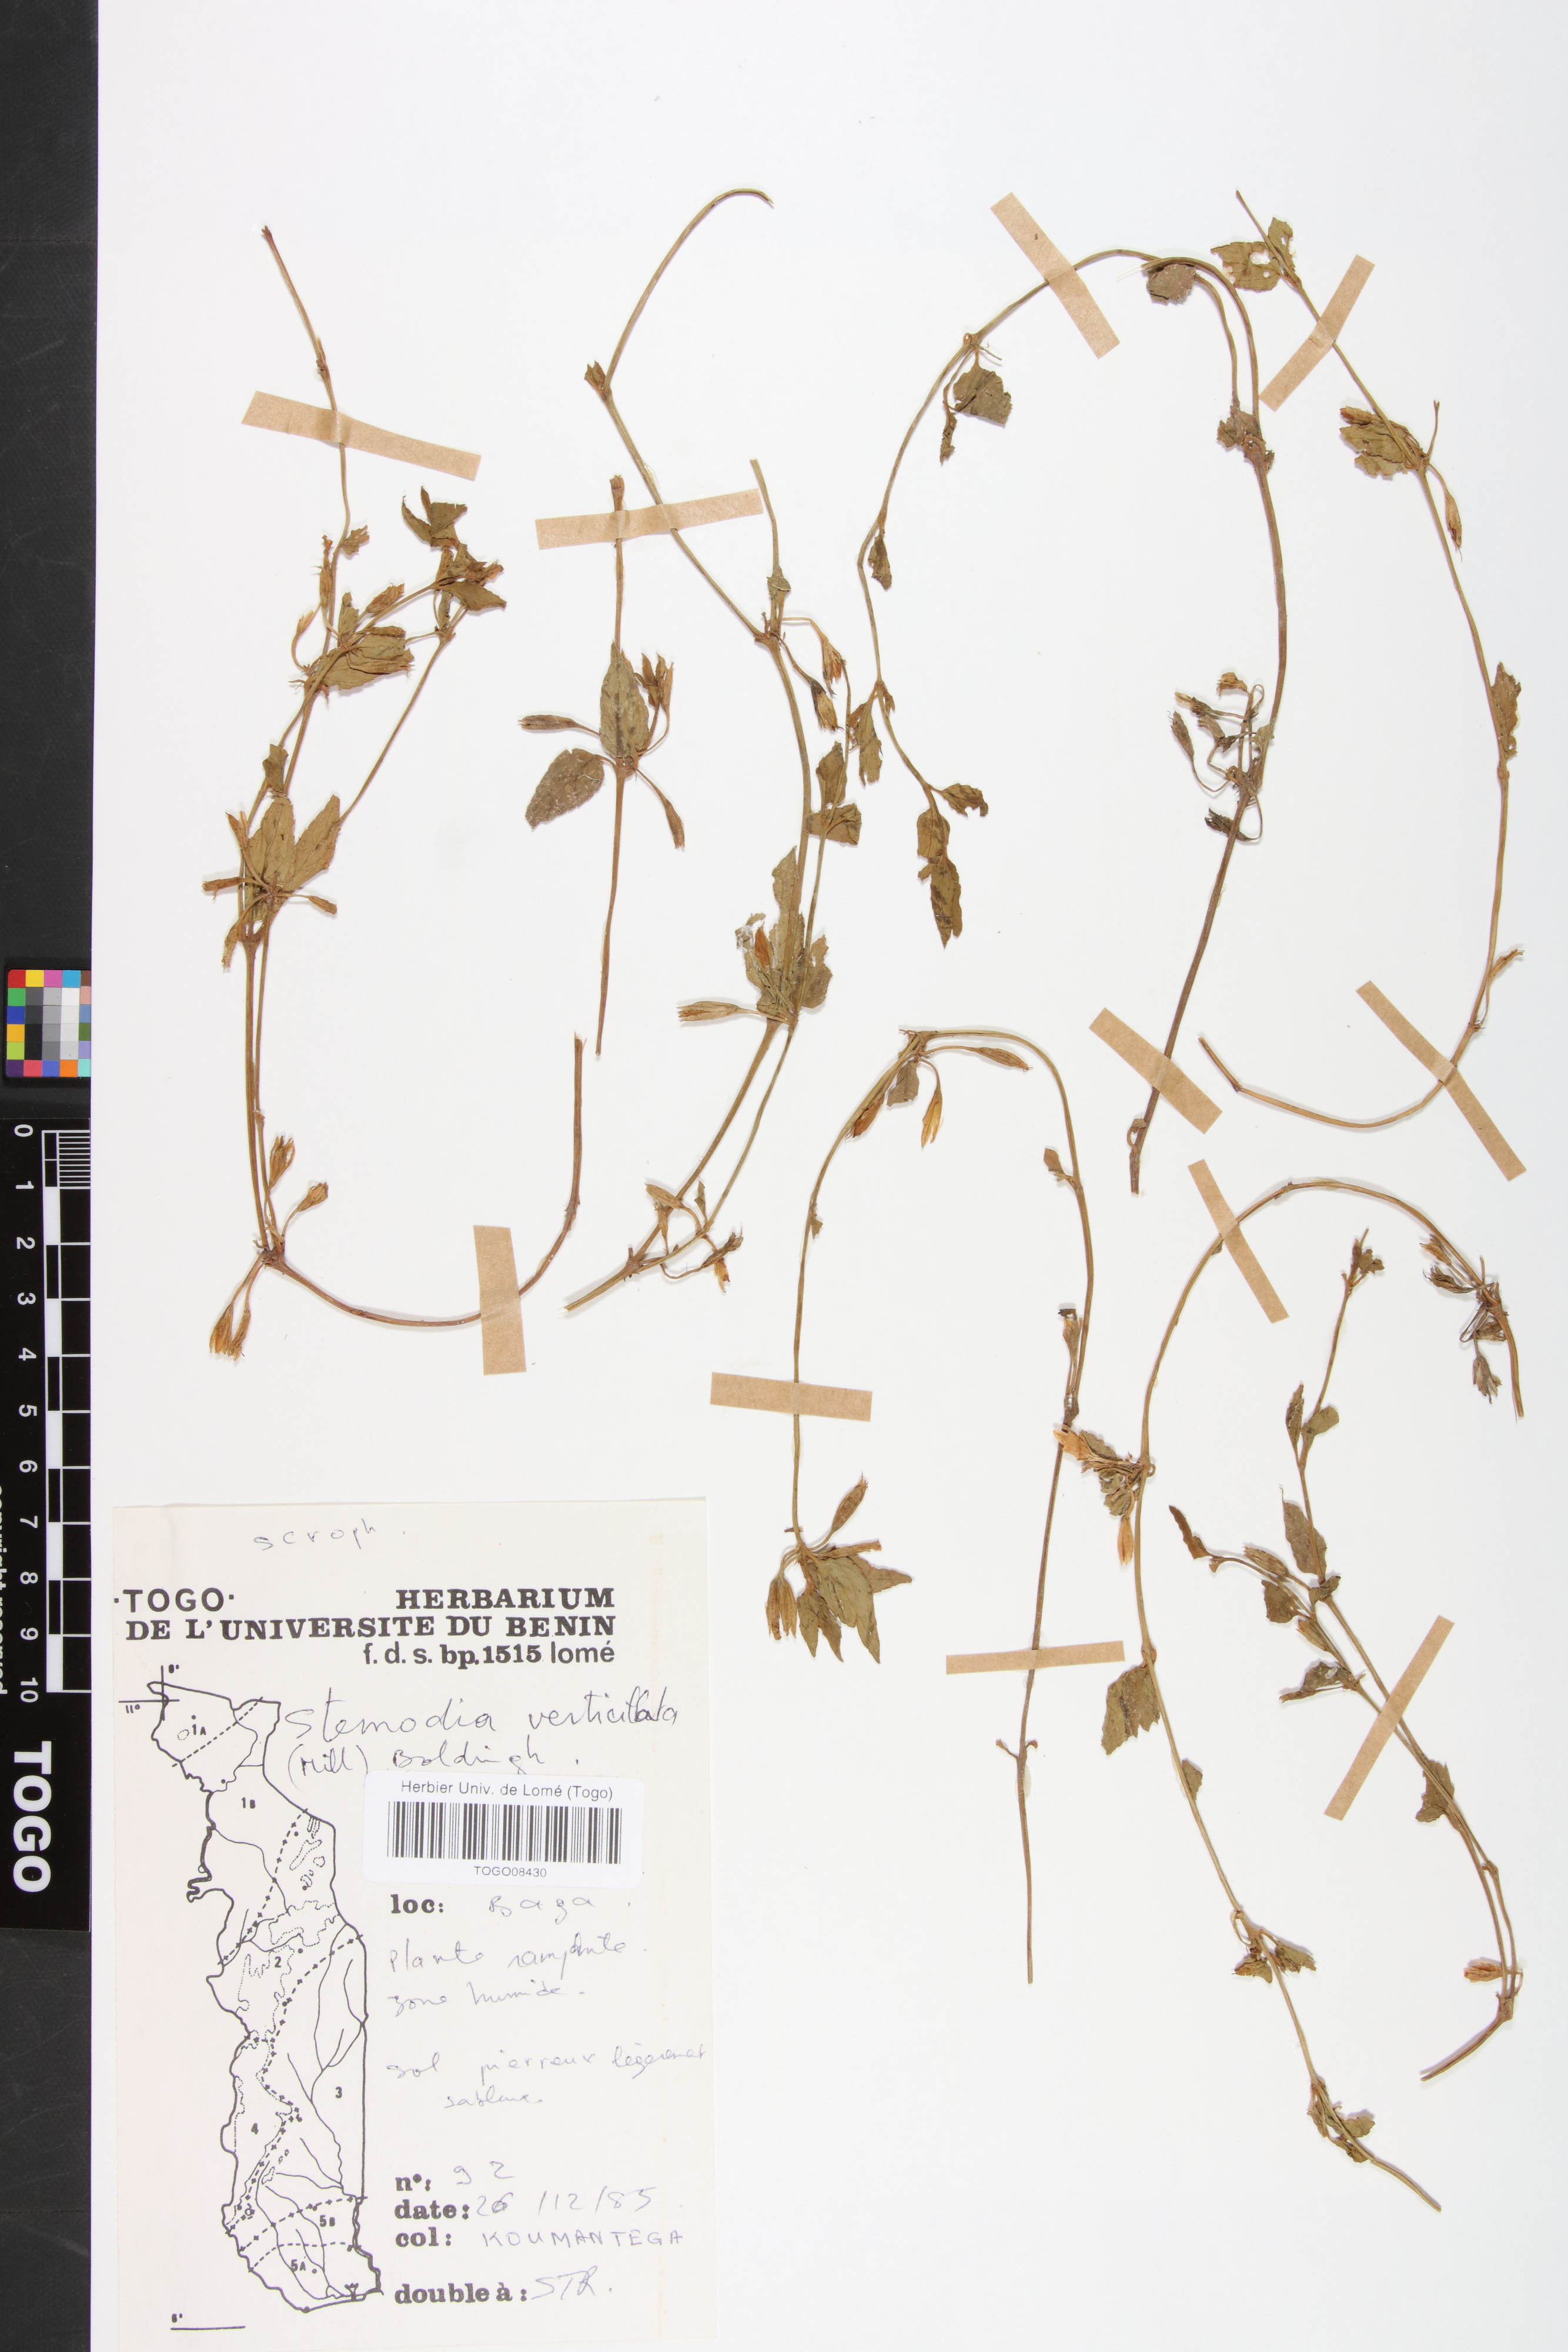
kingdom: Plantae
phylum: Tracheophyta
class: Magnoliopsida
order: Lamiales
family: Plantaginaceae
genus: Stemodia
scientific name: Stemodia verticillata
